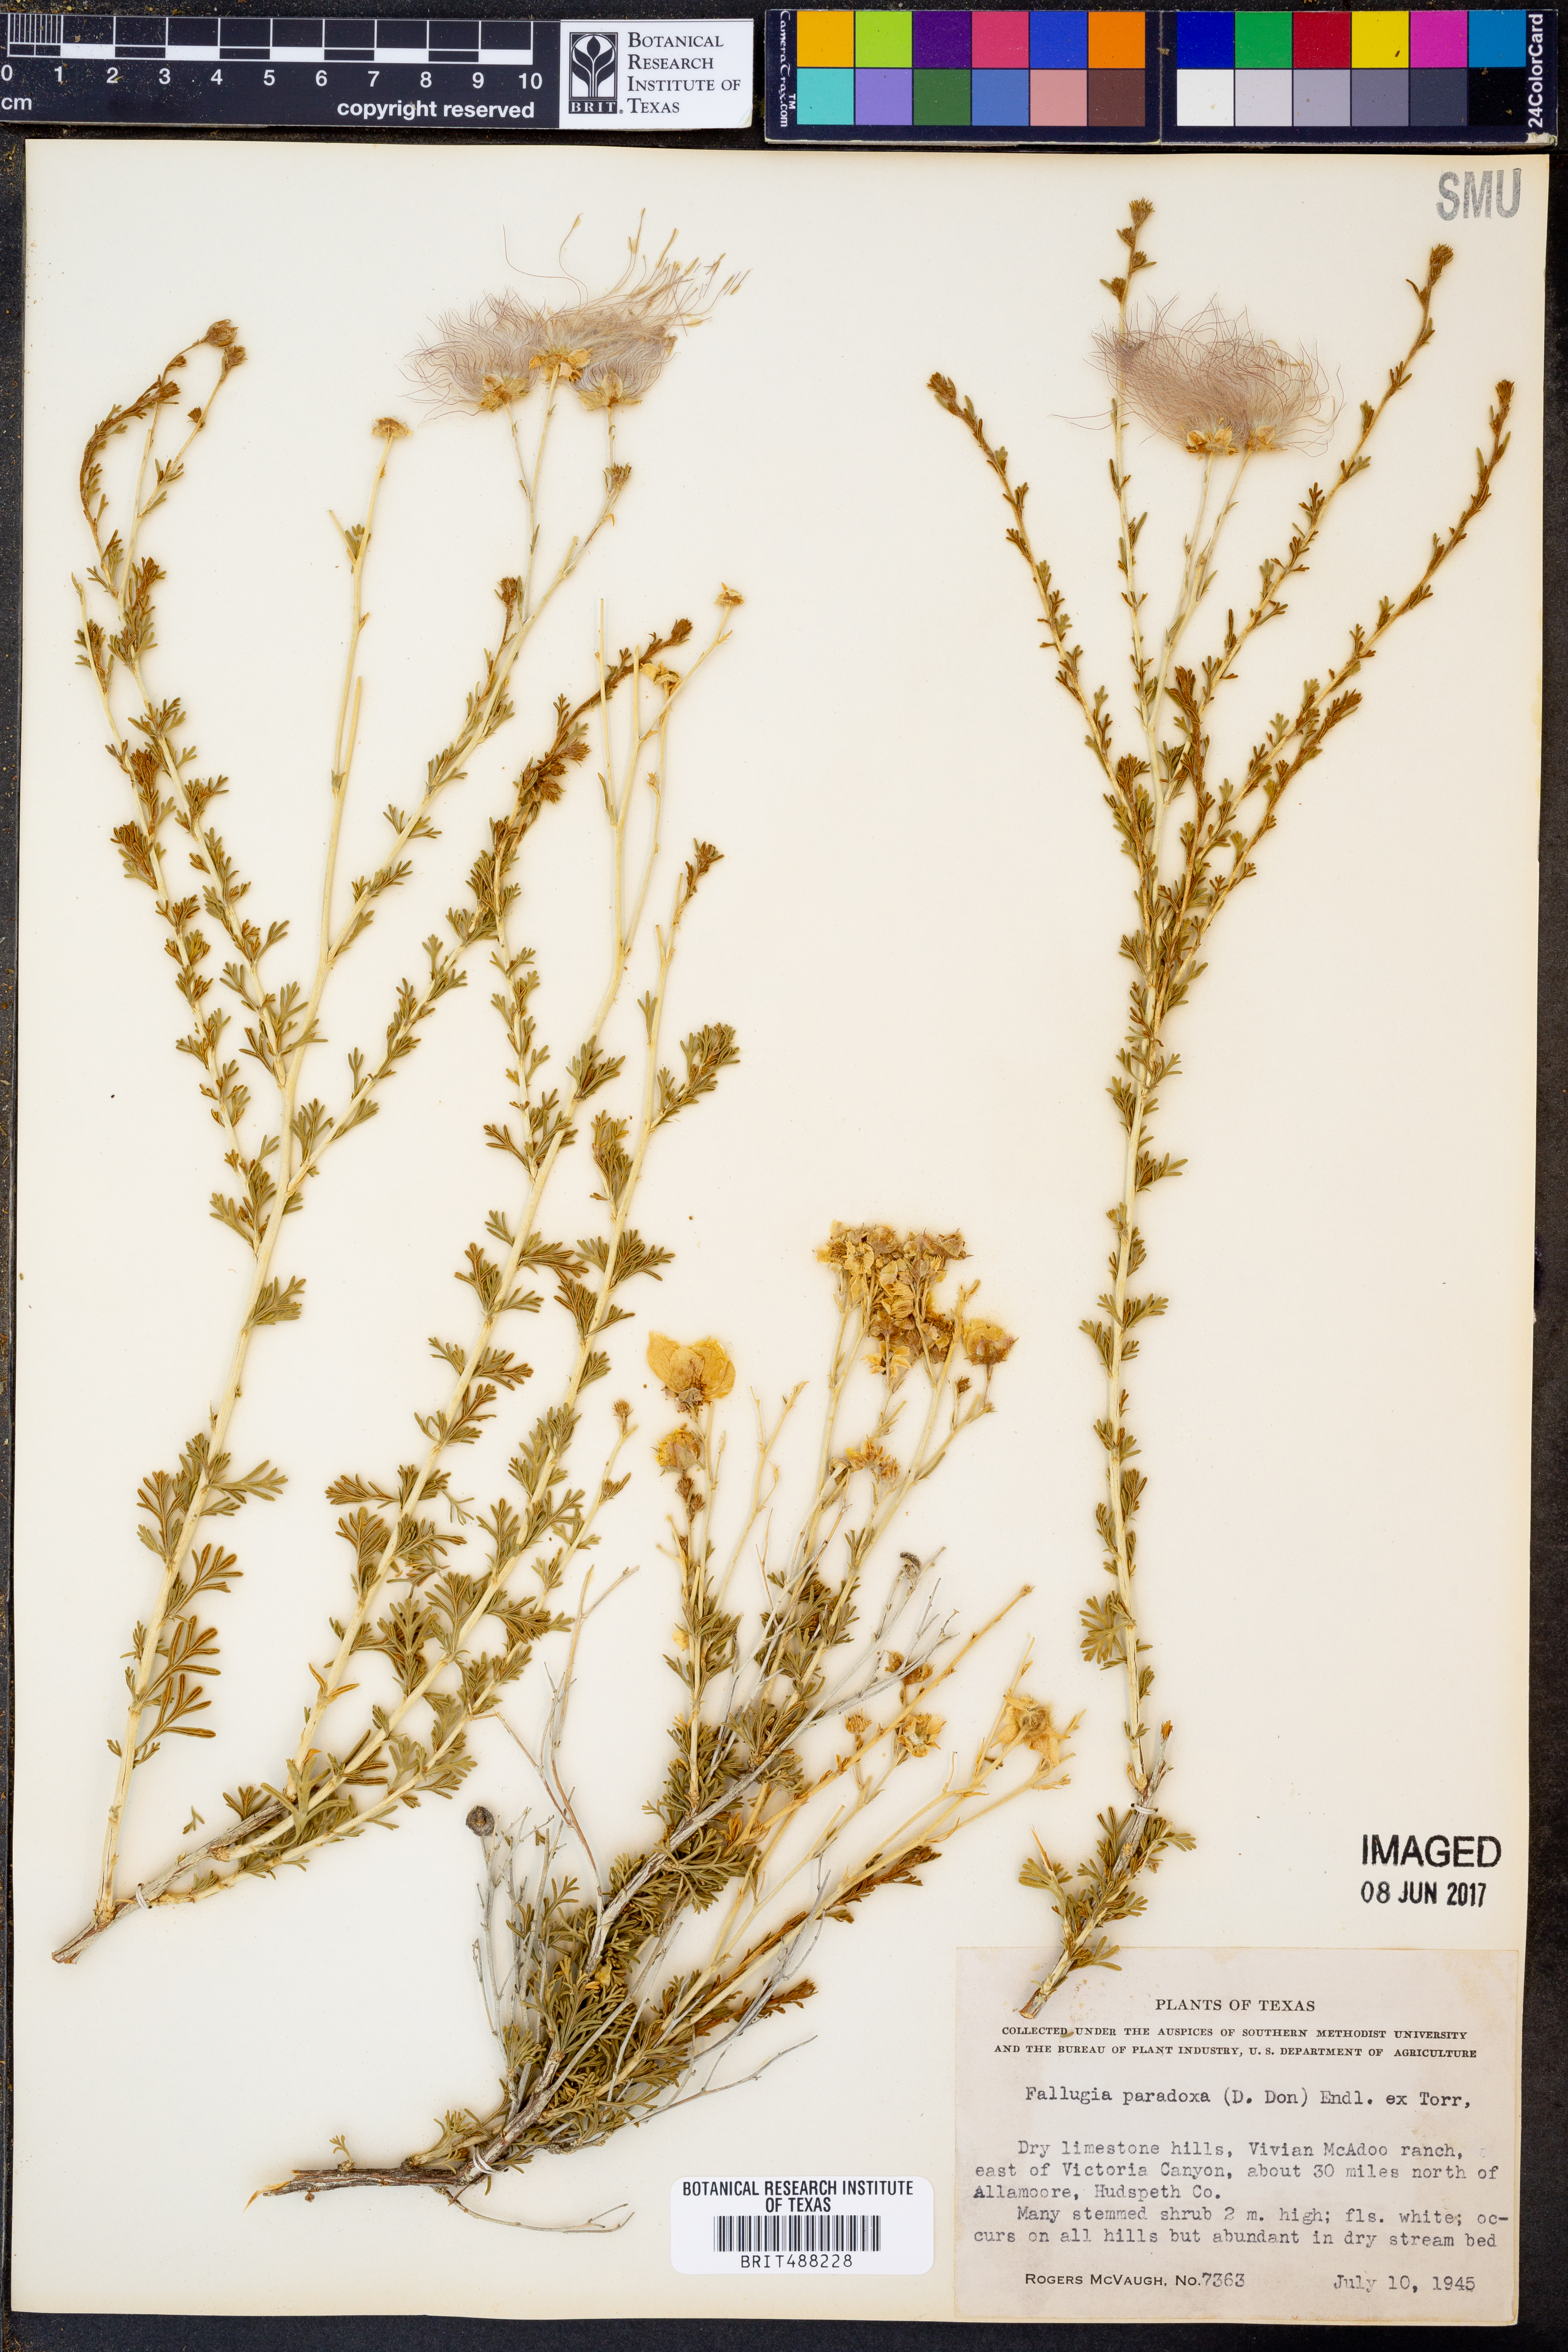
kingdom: Plantae
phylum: Tracheophyta
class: Magnoliopsida
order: Rosales
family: Rosaceae
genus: Fallugia
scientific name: Fallugia paradoxa
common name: Apache-plume
